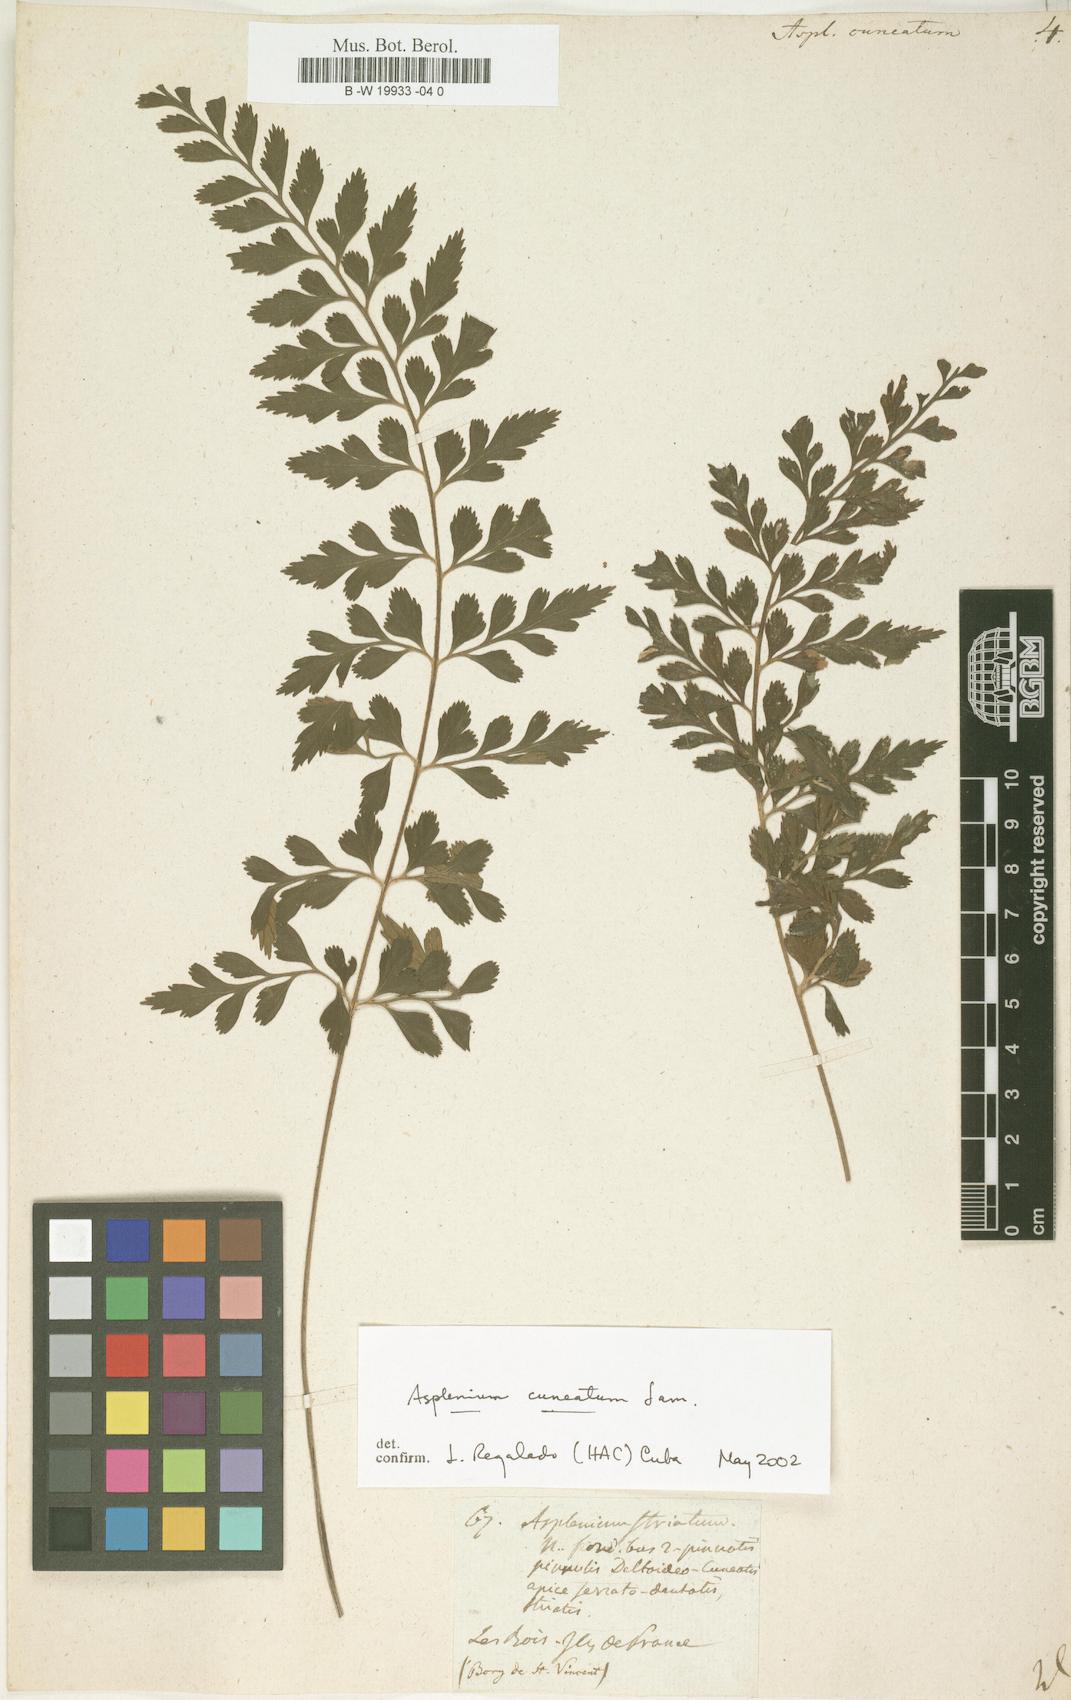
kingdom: Plantae
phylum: Tracheophyta
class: Polypodiopsida
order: Polypodiales
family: Aspleniaceae
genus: Asplenium
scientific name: Asplenium cuneatum
